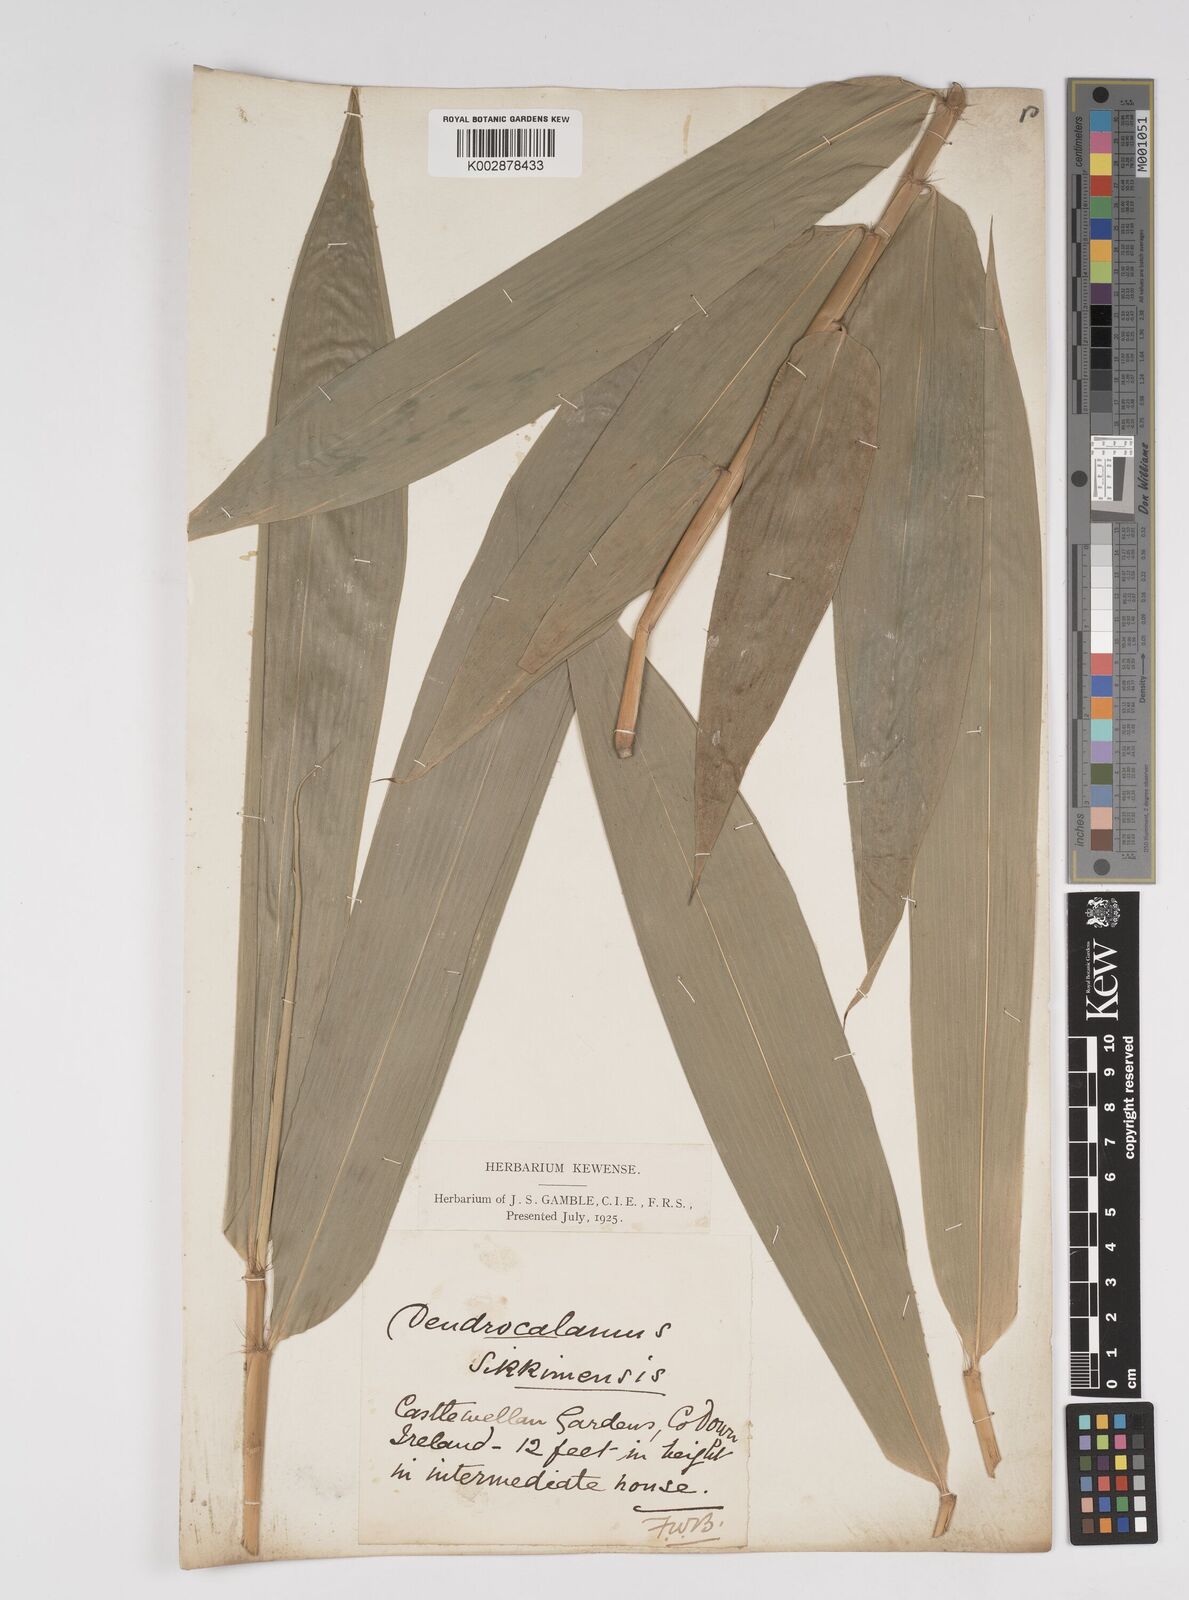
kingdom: Plantae
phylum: Tracheophyta
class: Liliopsida
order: Poales
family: Poaceae
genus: Dendrocalamus
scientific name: Dendrocalamus sikkimensis
